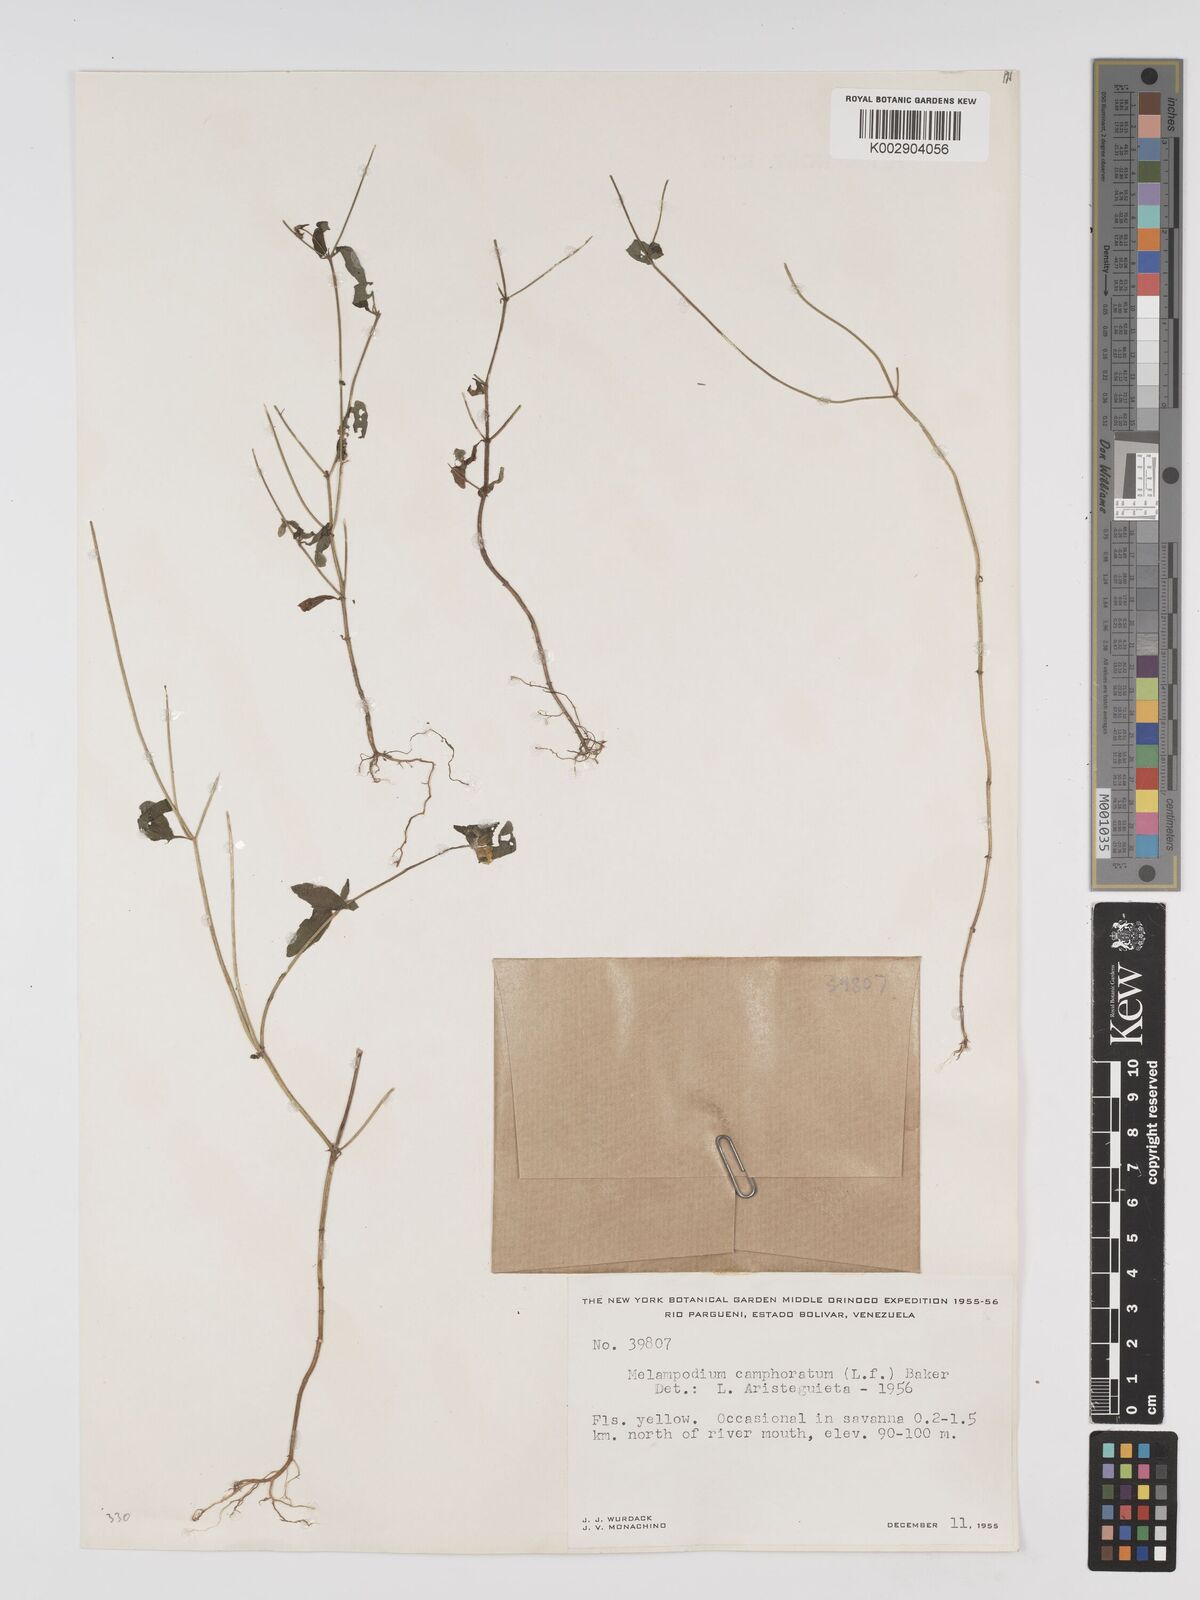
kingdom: Plantae
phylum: Tracheophyta
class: Magnoliopsida
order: Asterales
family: Asteraceae
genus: Unxia
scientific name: Unxia camphorata
